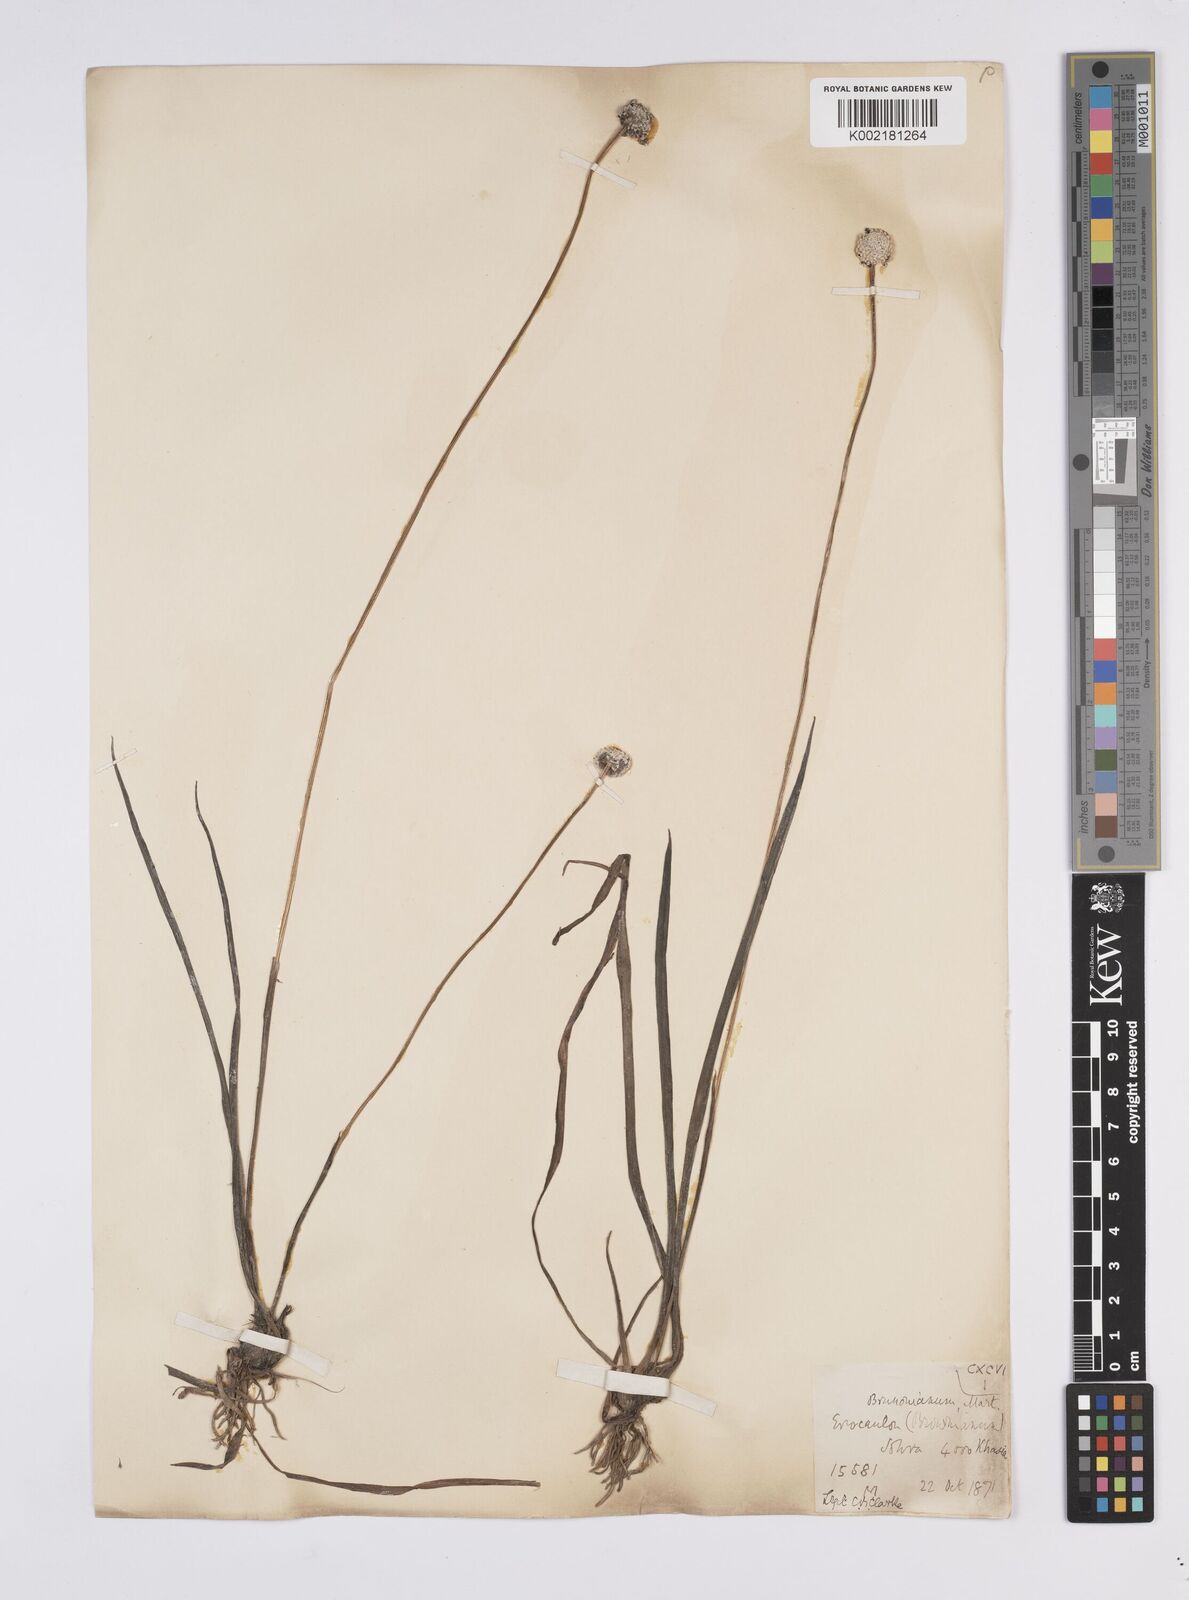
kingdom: Plantae
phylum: Tracheophyta
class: Liliopsida
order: Poales
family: Eriocaulaceae
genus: Eriocaulon
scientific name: Eriocaulon brownianum
